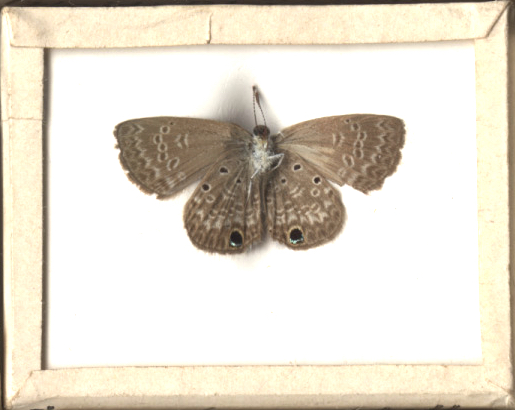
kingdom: Animalia
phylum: Arthropoda
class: Insecta
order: Lepidoptera
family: Lycaenidae
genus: Hemiargus
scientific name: Hemiargus ceraunus
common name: Ceraunus Blue
